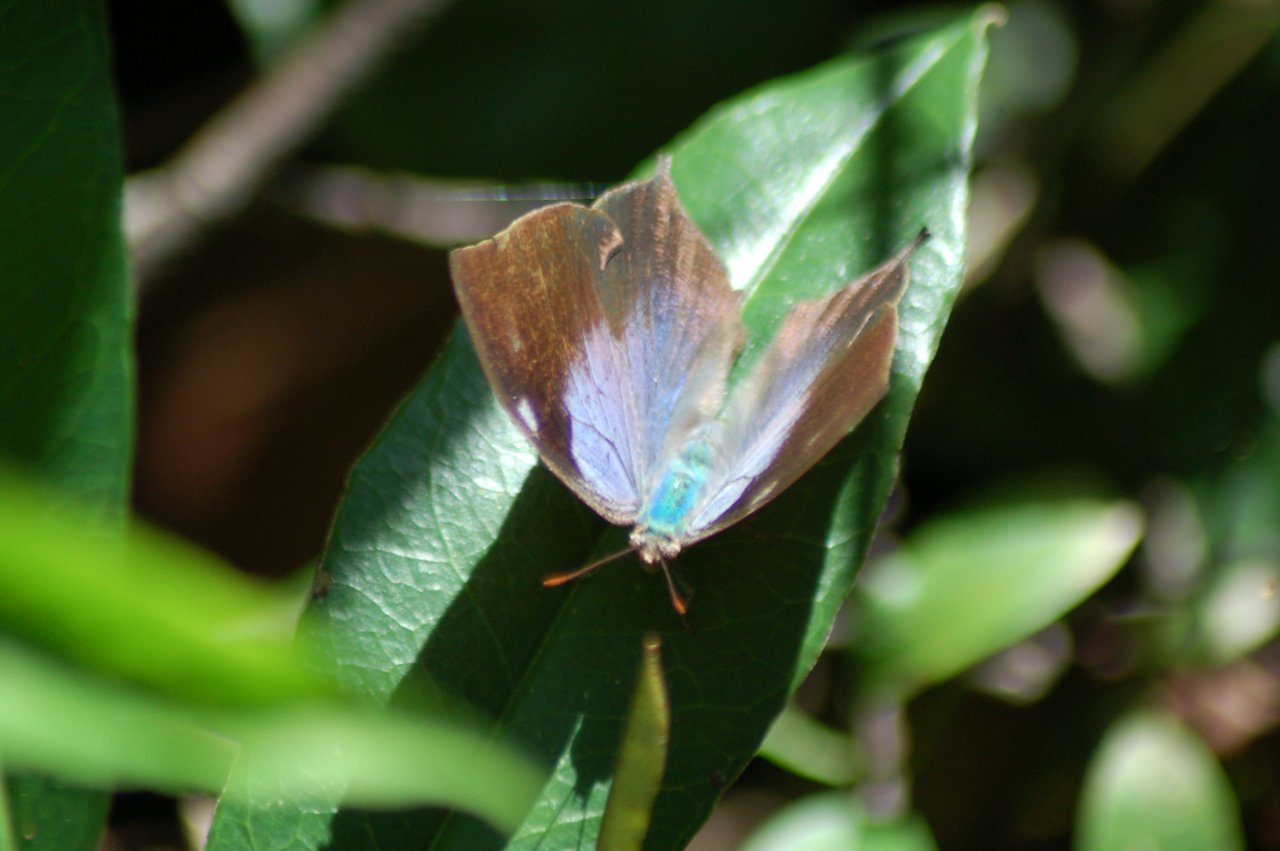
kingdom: Animalia
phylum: Arthropoda
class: Insecta
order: Lepidoptera
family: Nymphalidae
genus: Memphis
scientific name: Memphis
